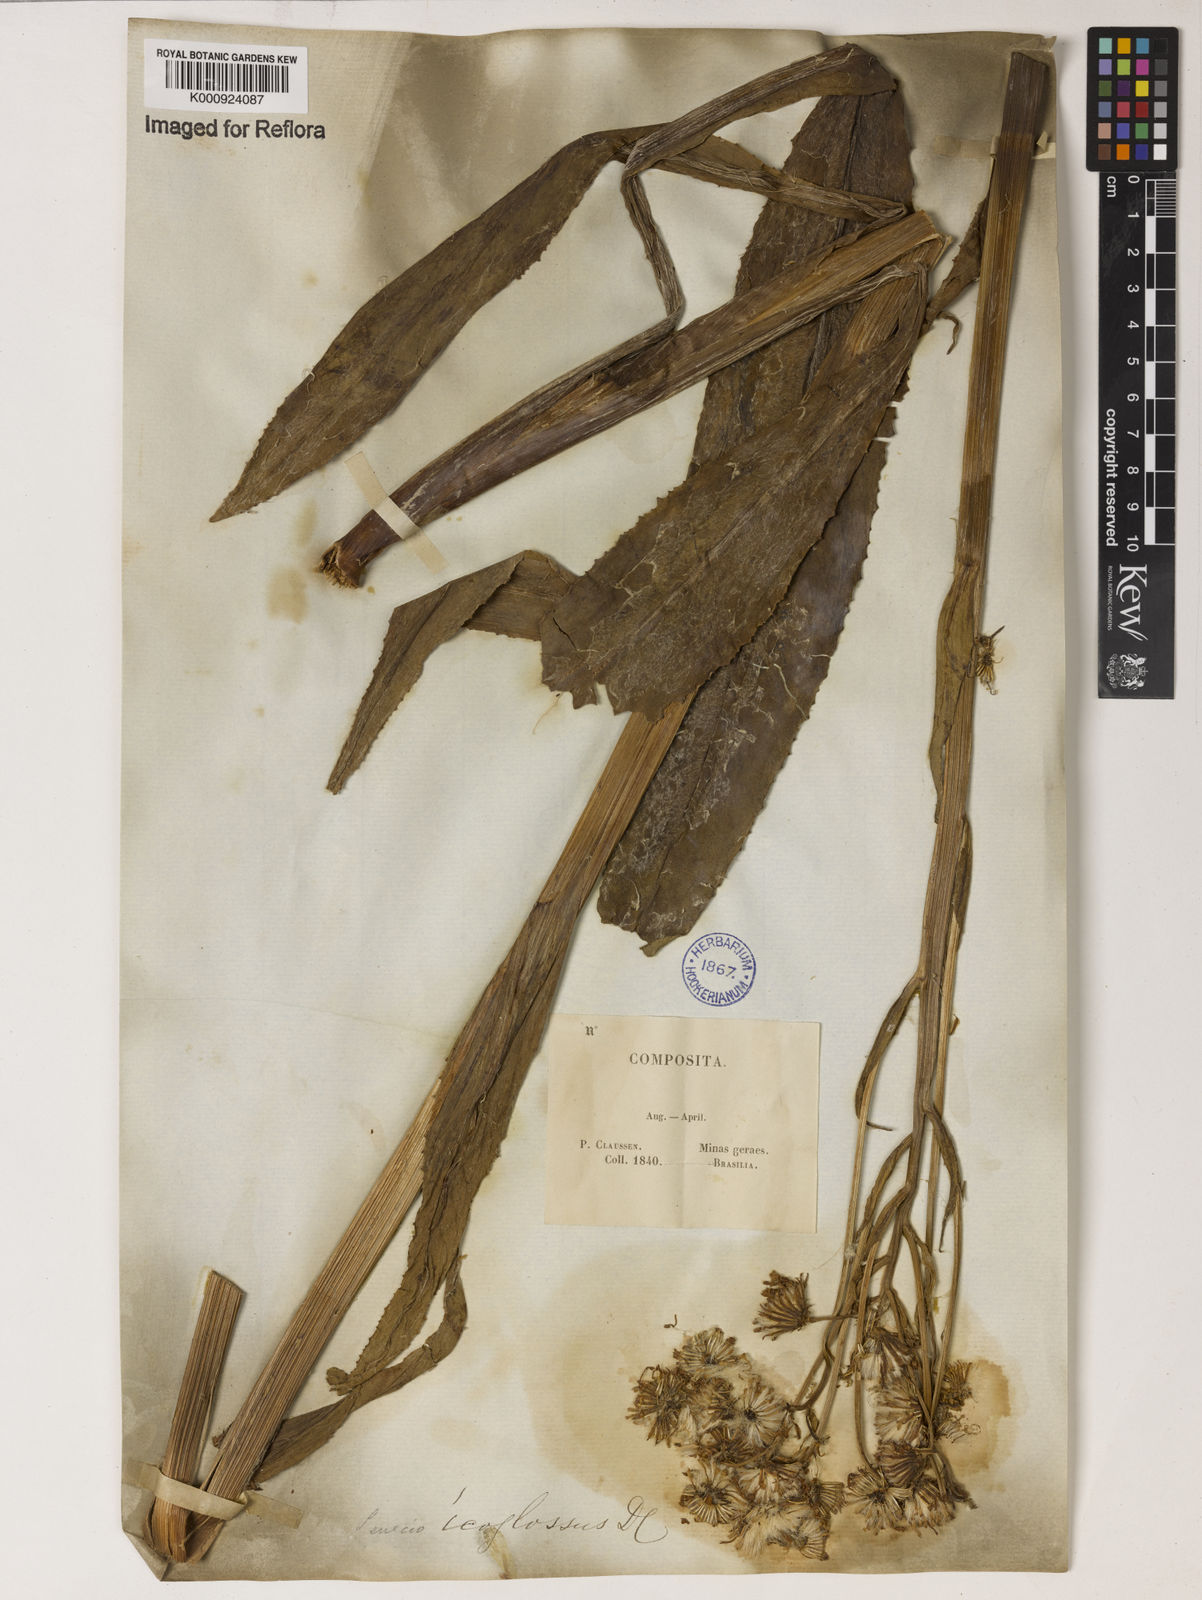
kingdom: Plantae
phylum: Tracheophyta
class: Magnoliopsida
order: Asterales
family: Asteraceae
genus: Senecio
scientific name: Senecio icoglossus
